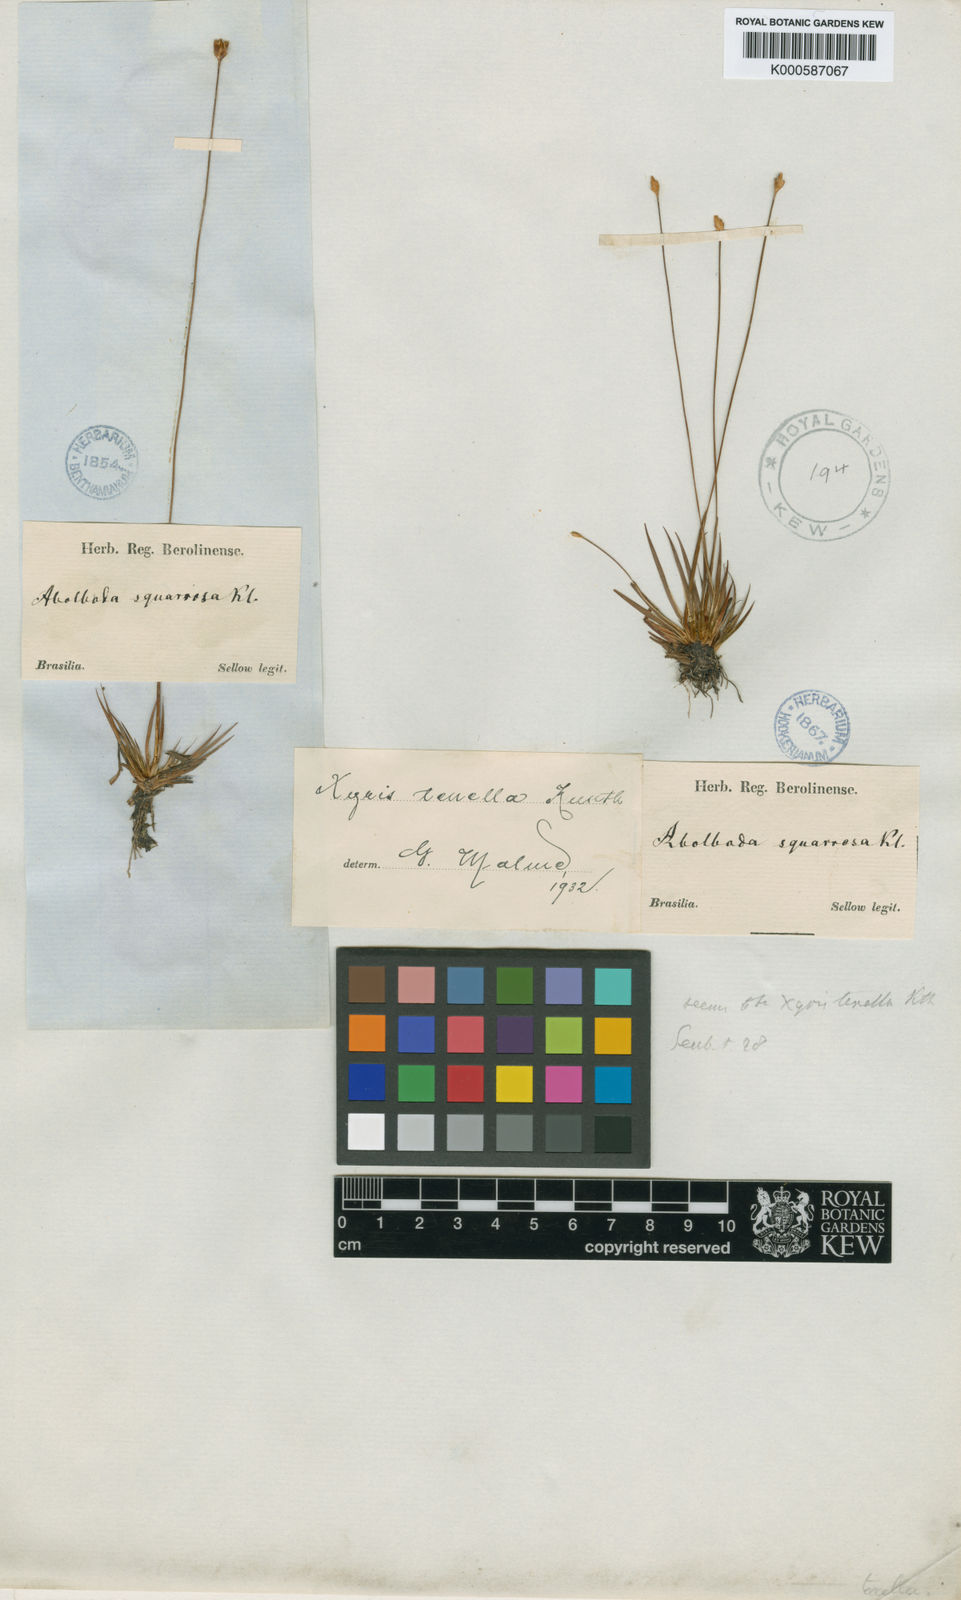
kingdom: Plantae
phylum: Tracheophyta
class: Liliopsida
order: Poales
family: Xyridaceae
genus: Xyris
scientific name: Xyris tenella
